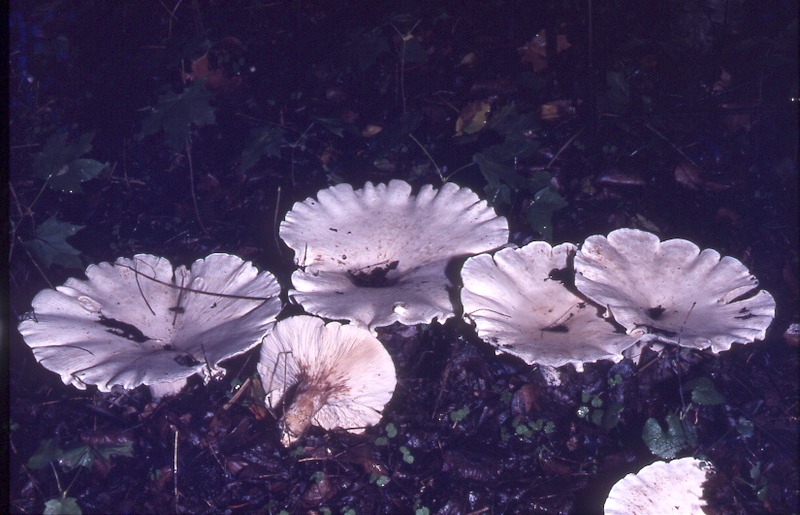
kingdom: Fungi
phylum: Basidiomycota
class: Agaricomycetes
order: Agaricales
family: Tricholomataceae
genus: Aspropaxillus
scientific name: Aspropaxillus giganteus
